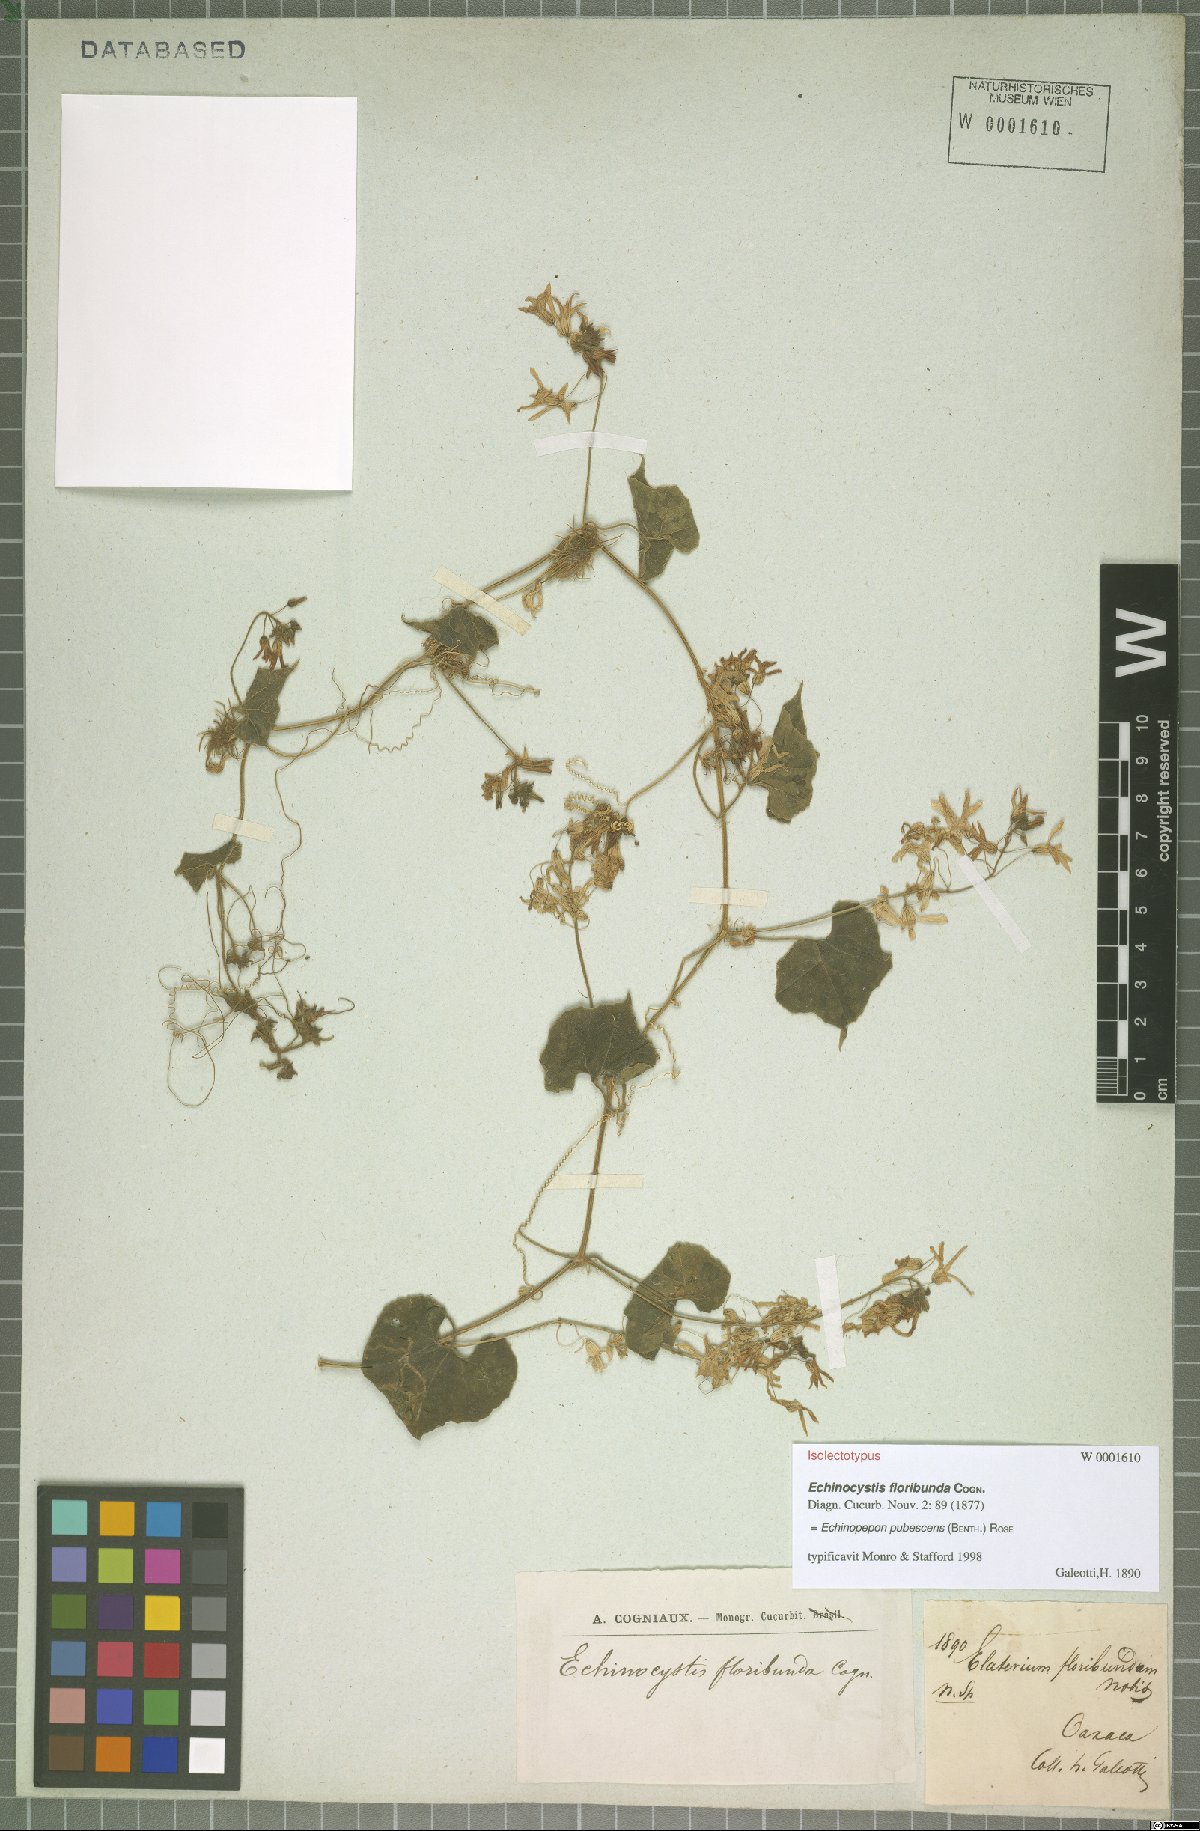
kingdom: Plantae
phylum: Tracheophyta
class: Magnoliopsida
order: Cucurbitales
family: Cucurbitaceae
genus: Echinopepon
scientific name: Echinopepon pubescens
